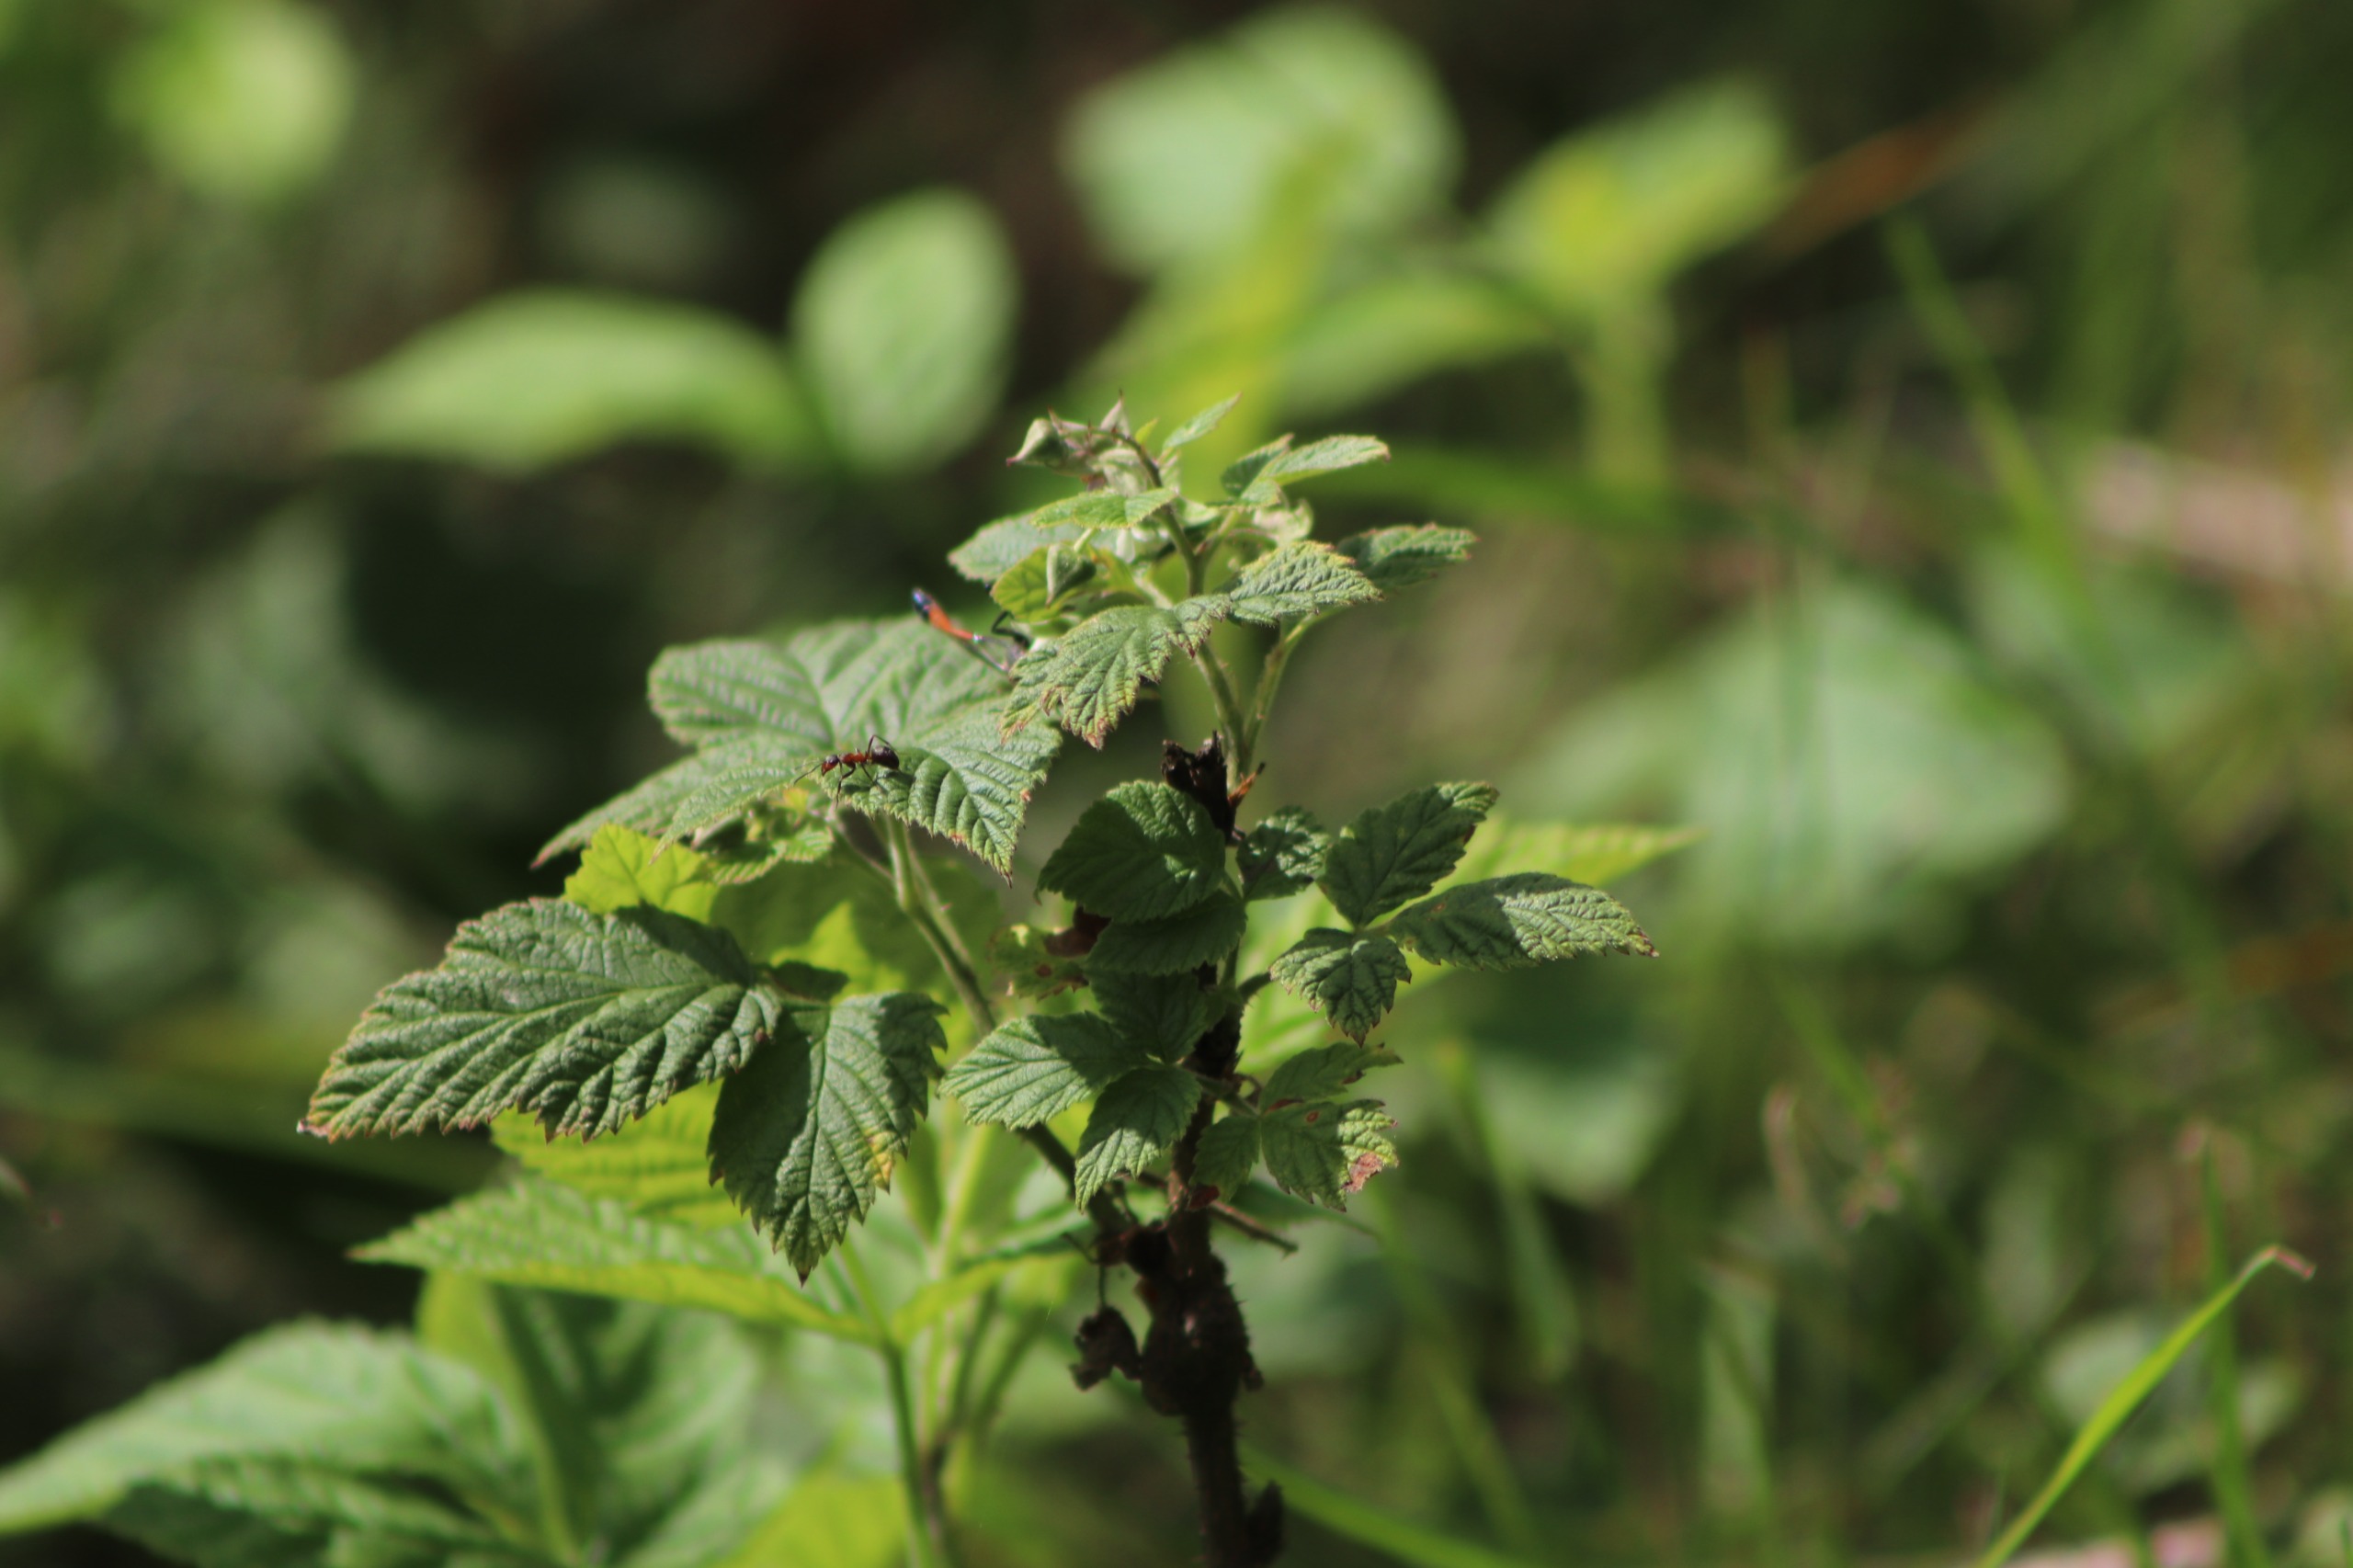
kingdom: Plantae
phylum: Tracheophyta
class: Magnoliopsida
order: Rosales
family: Rosaceae
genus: Rubus
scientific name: Rubus idaeus
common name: Hindbær
